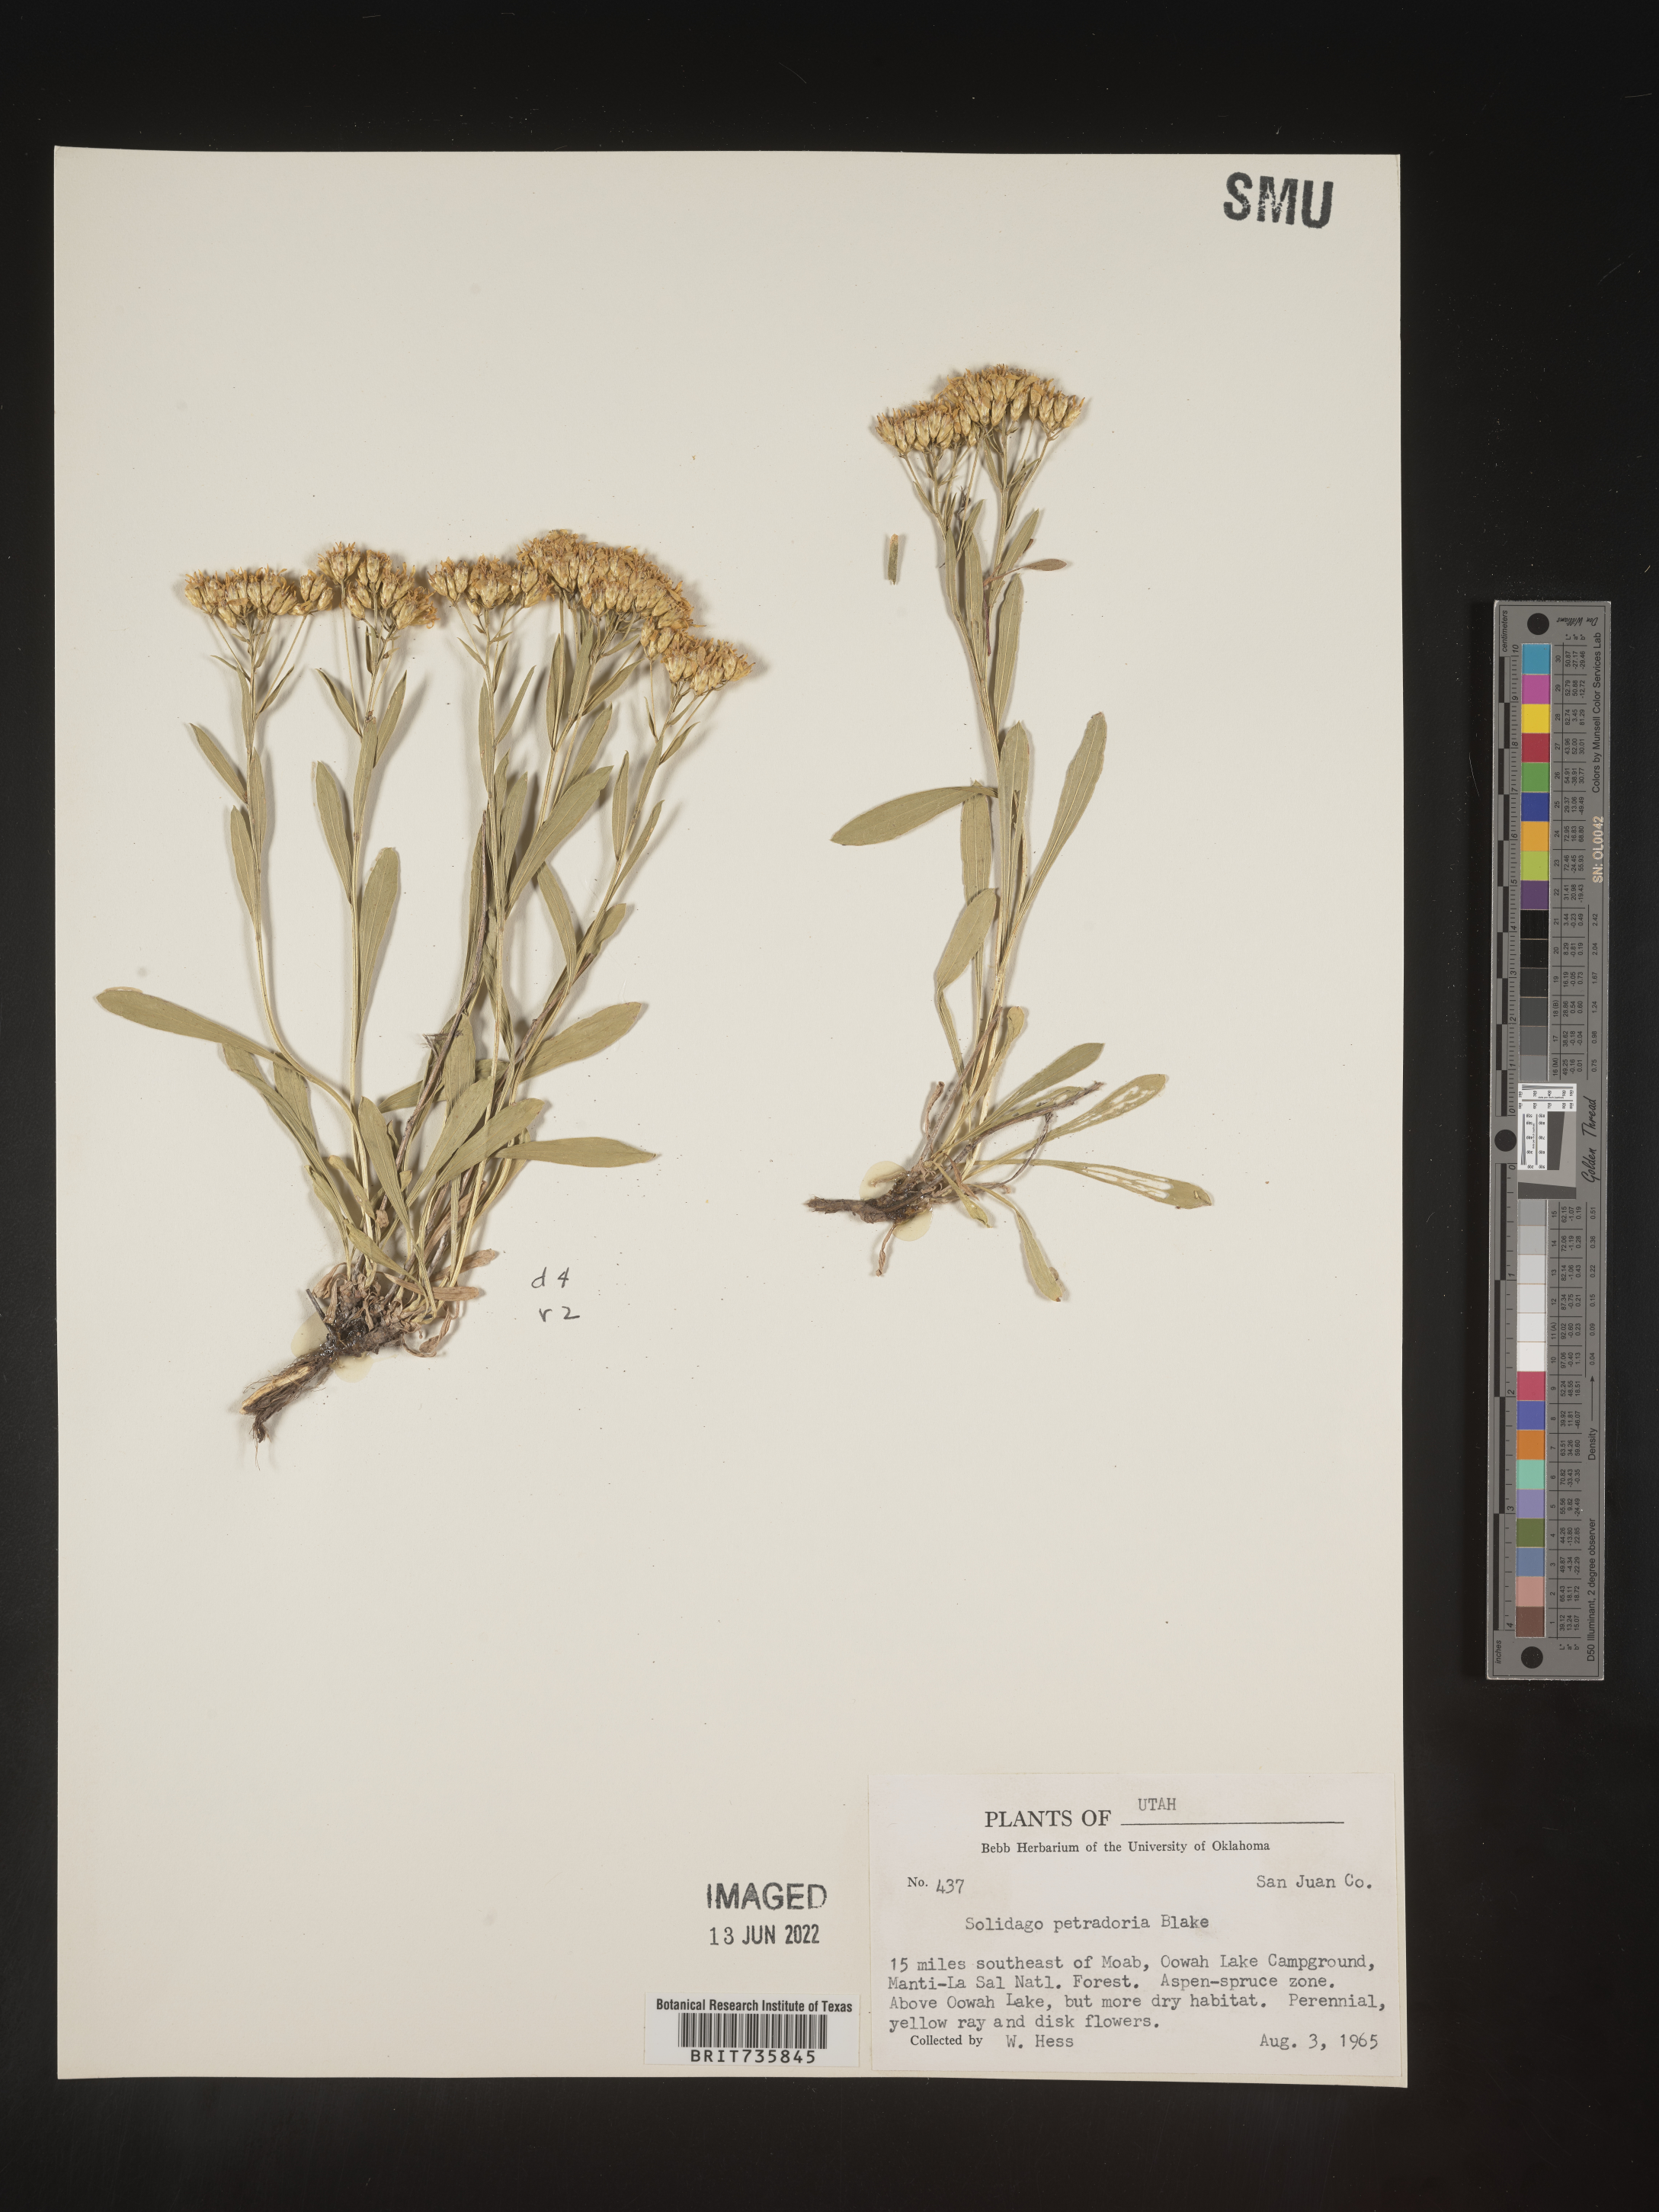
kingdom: Plantae
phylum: Tracheophyta
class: Magnoliopsida
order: Asterales
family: Asteraceae
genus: Petradoria
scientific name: Petradoria pumila
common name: Rock-goldenrod
